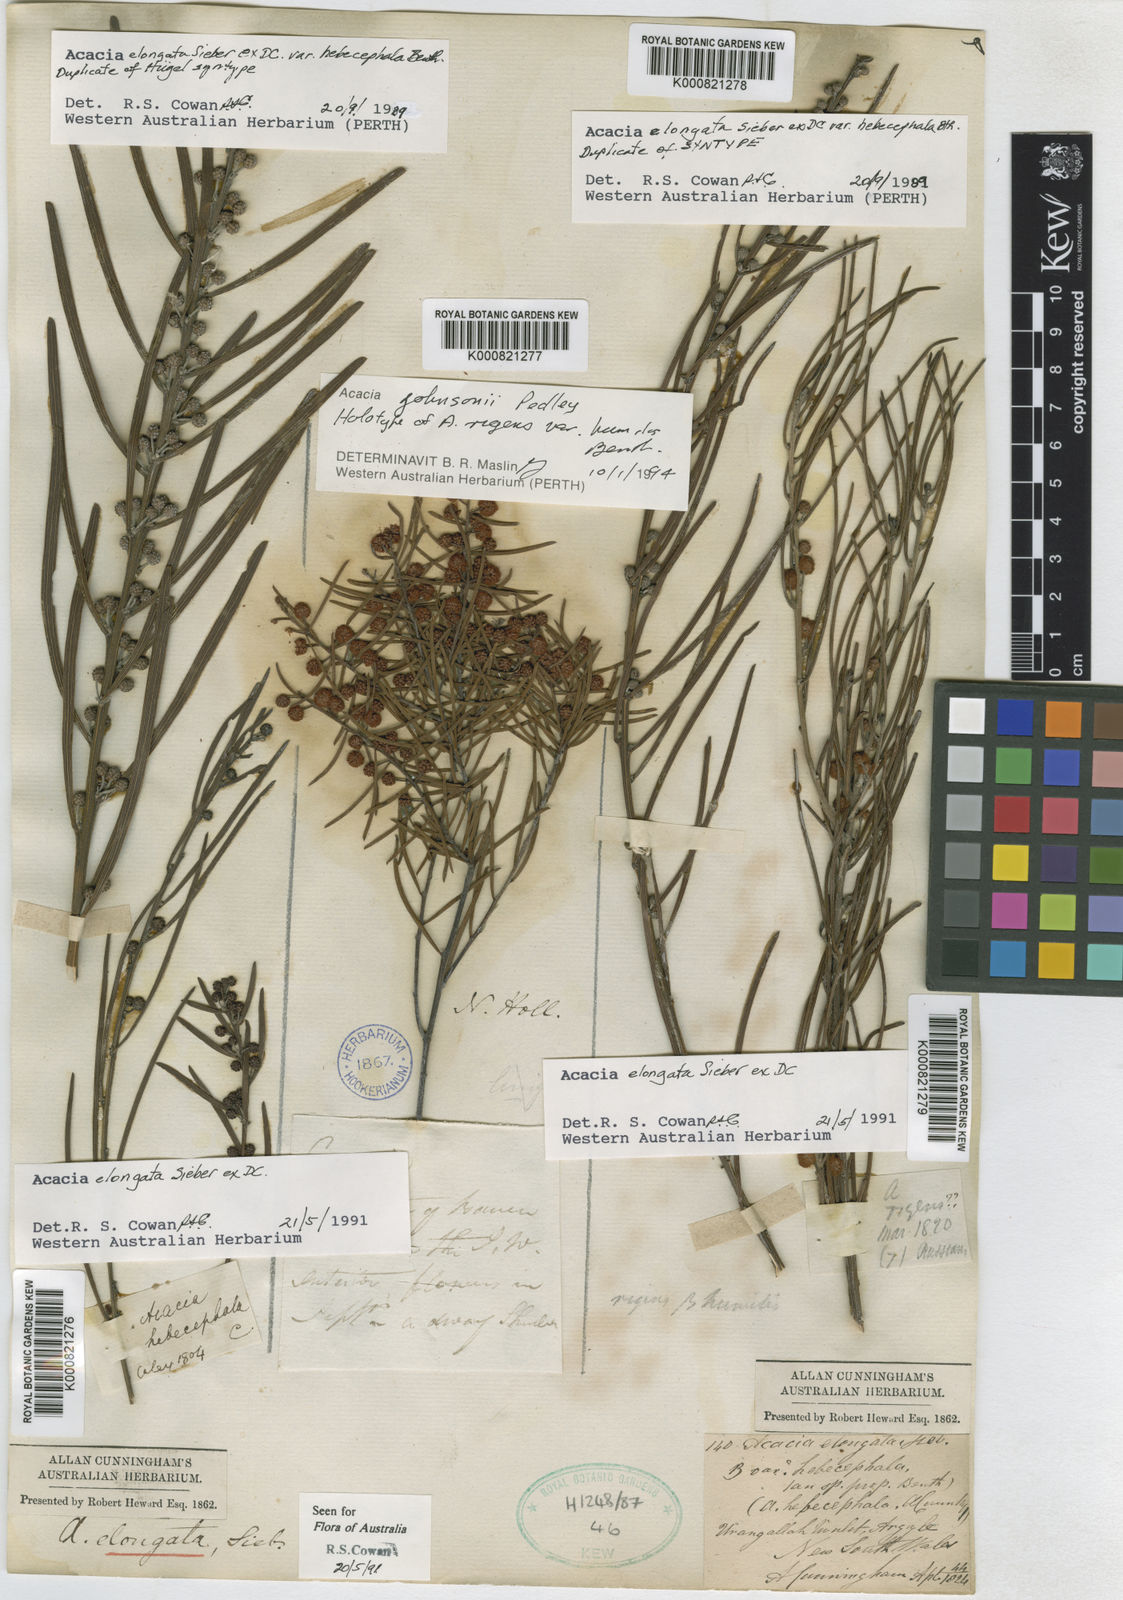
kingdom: Plantae
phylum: Tracheophyta
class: Magnoliopsida
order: Fabales
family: Fabaceae
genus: Acacia
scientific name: Acacia johnsonii
